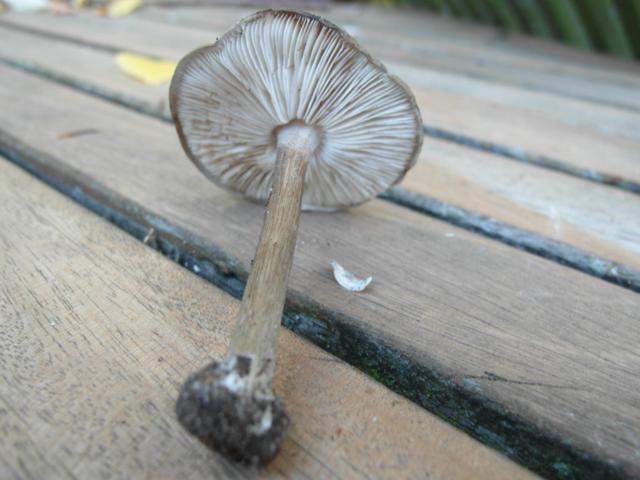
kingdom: Fungi
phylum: Basidiomycota
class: Agaricomycetes
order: Agaricales
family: Tricholomataceae
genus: Melanoleuca
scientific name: Melanoleuca polioleuca
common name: hvidbladet munkehat
